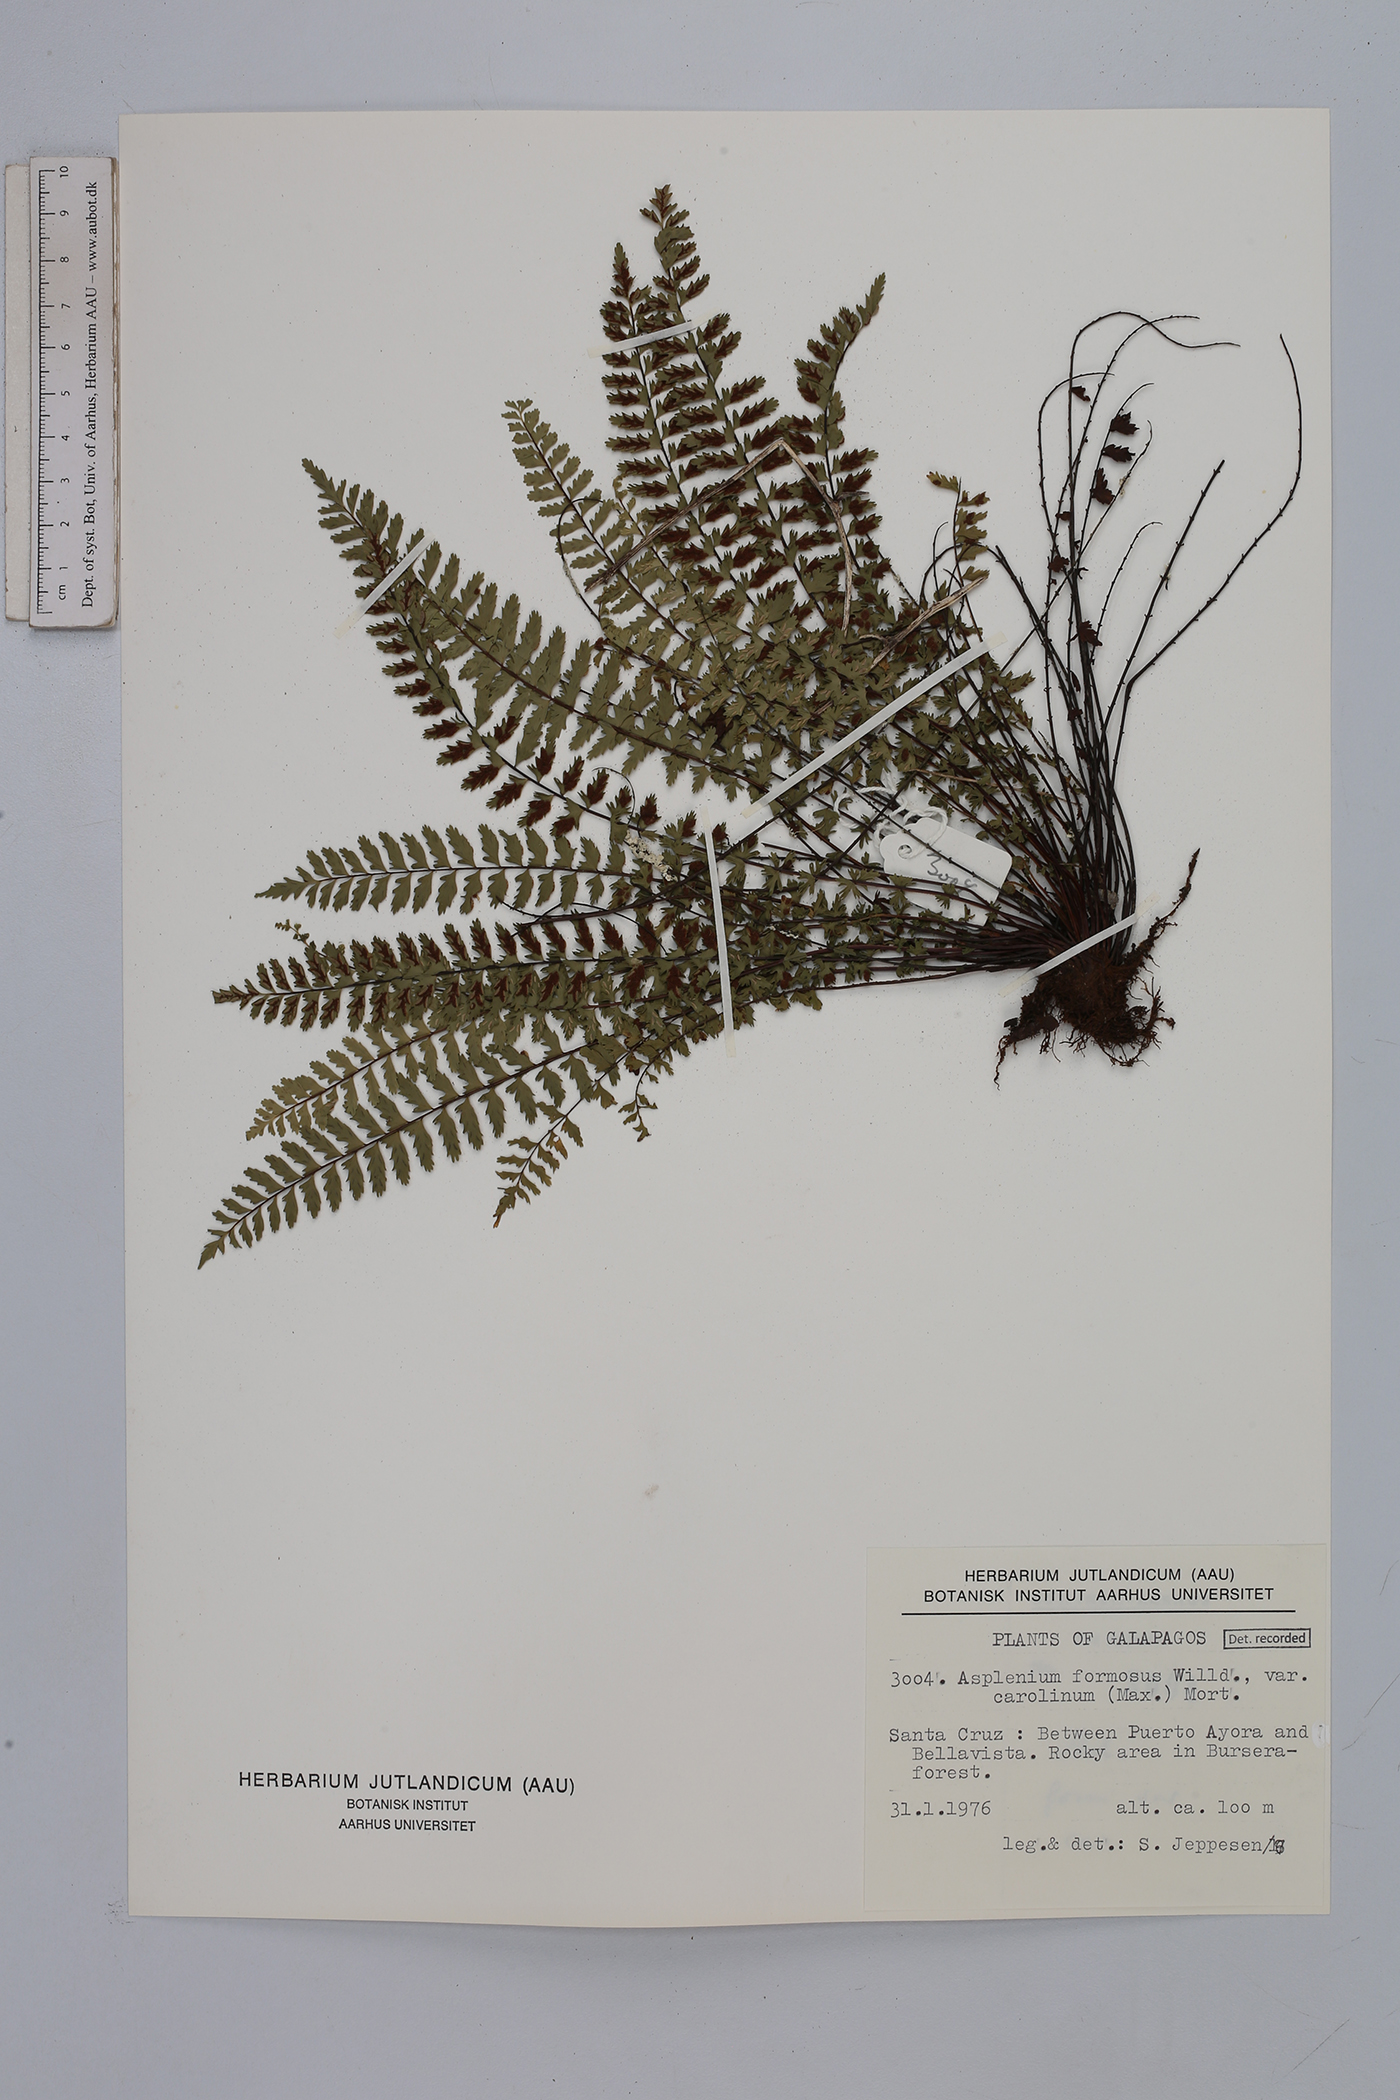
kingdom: Plantae
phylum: Tracheophyta
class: Polypodiopsida
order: Polypodiales
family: Aspleniaceae
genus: Asplenium
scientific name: Asplenium formosum
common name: Showy spleenwort
